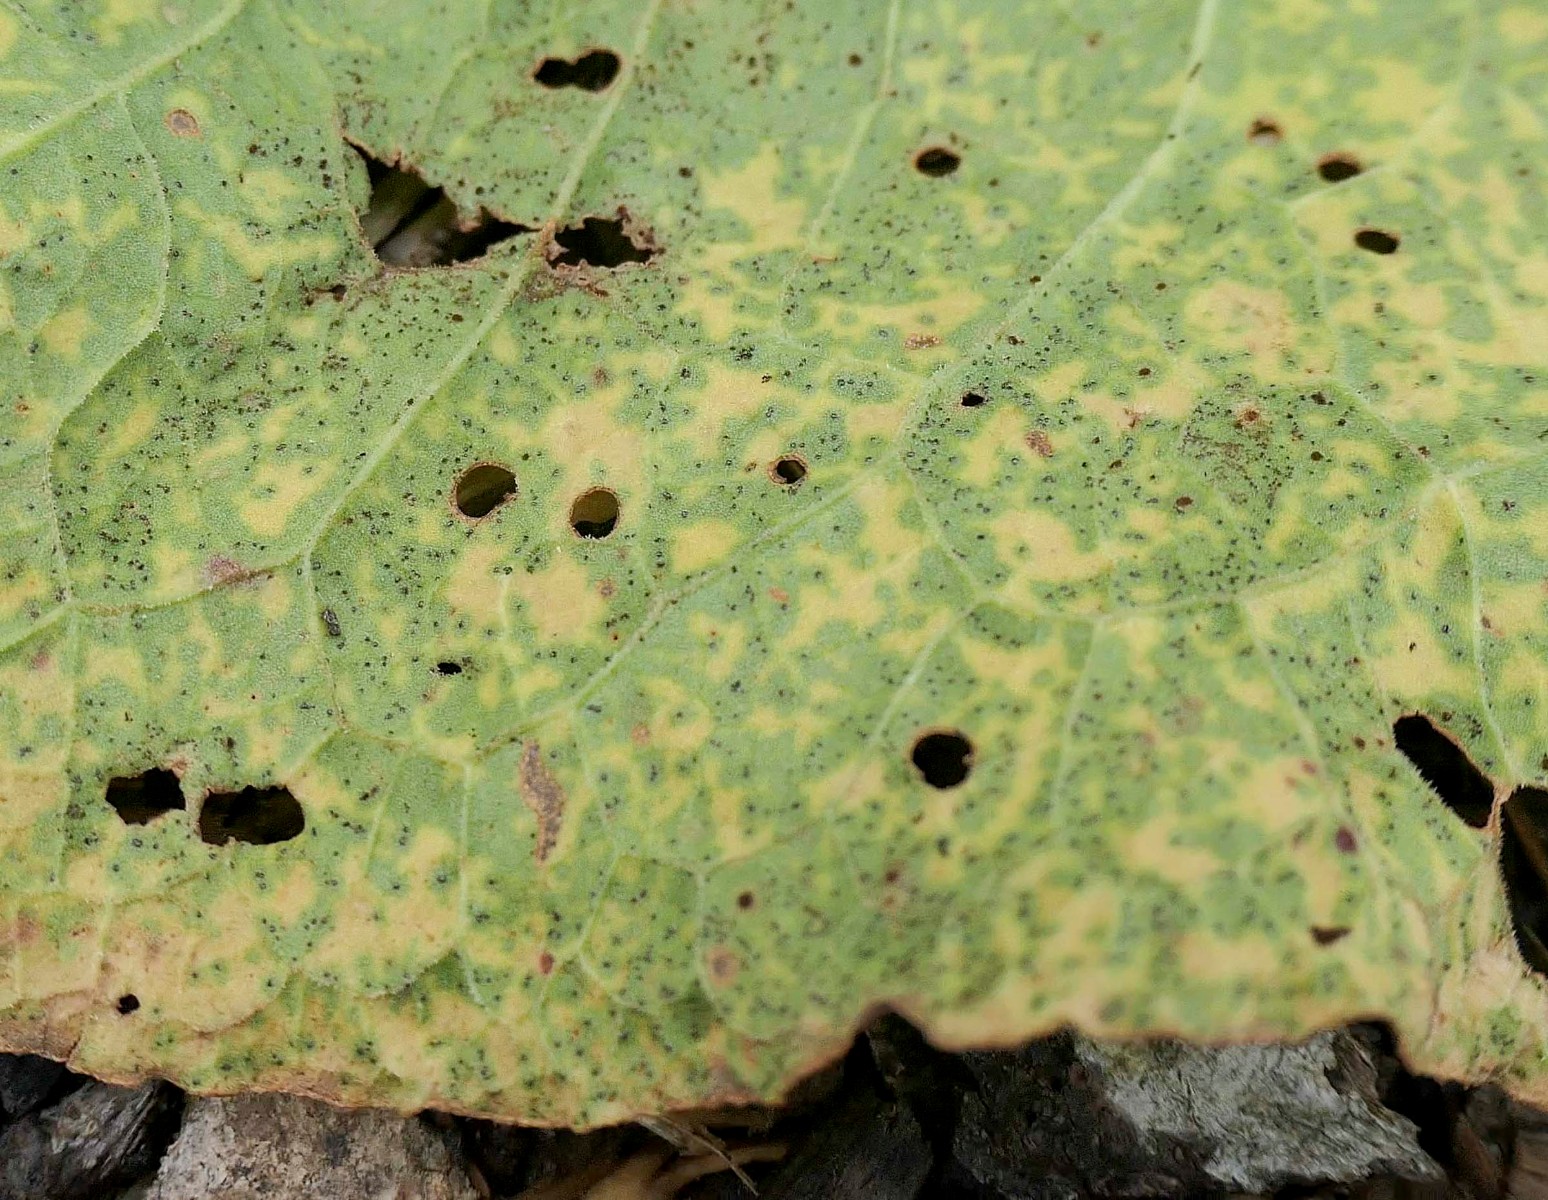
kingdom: Fungi
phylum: Basidiomycota
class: Pucciniomycetes
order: Pucciniales
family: Pucciniaceae
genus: Uromyces
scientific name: Uromyces rumicis
